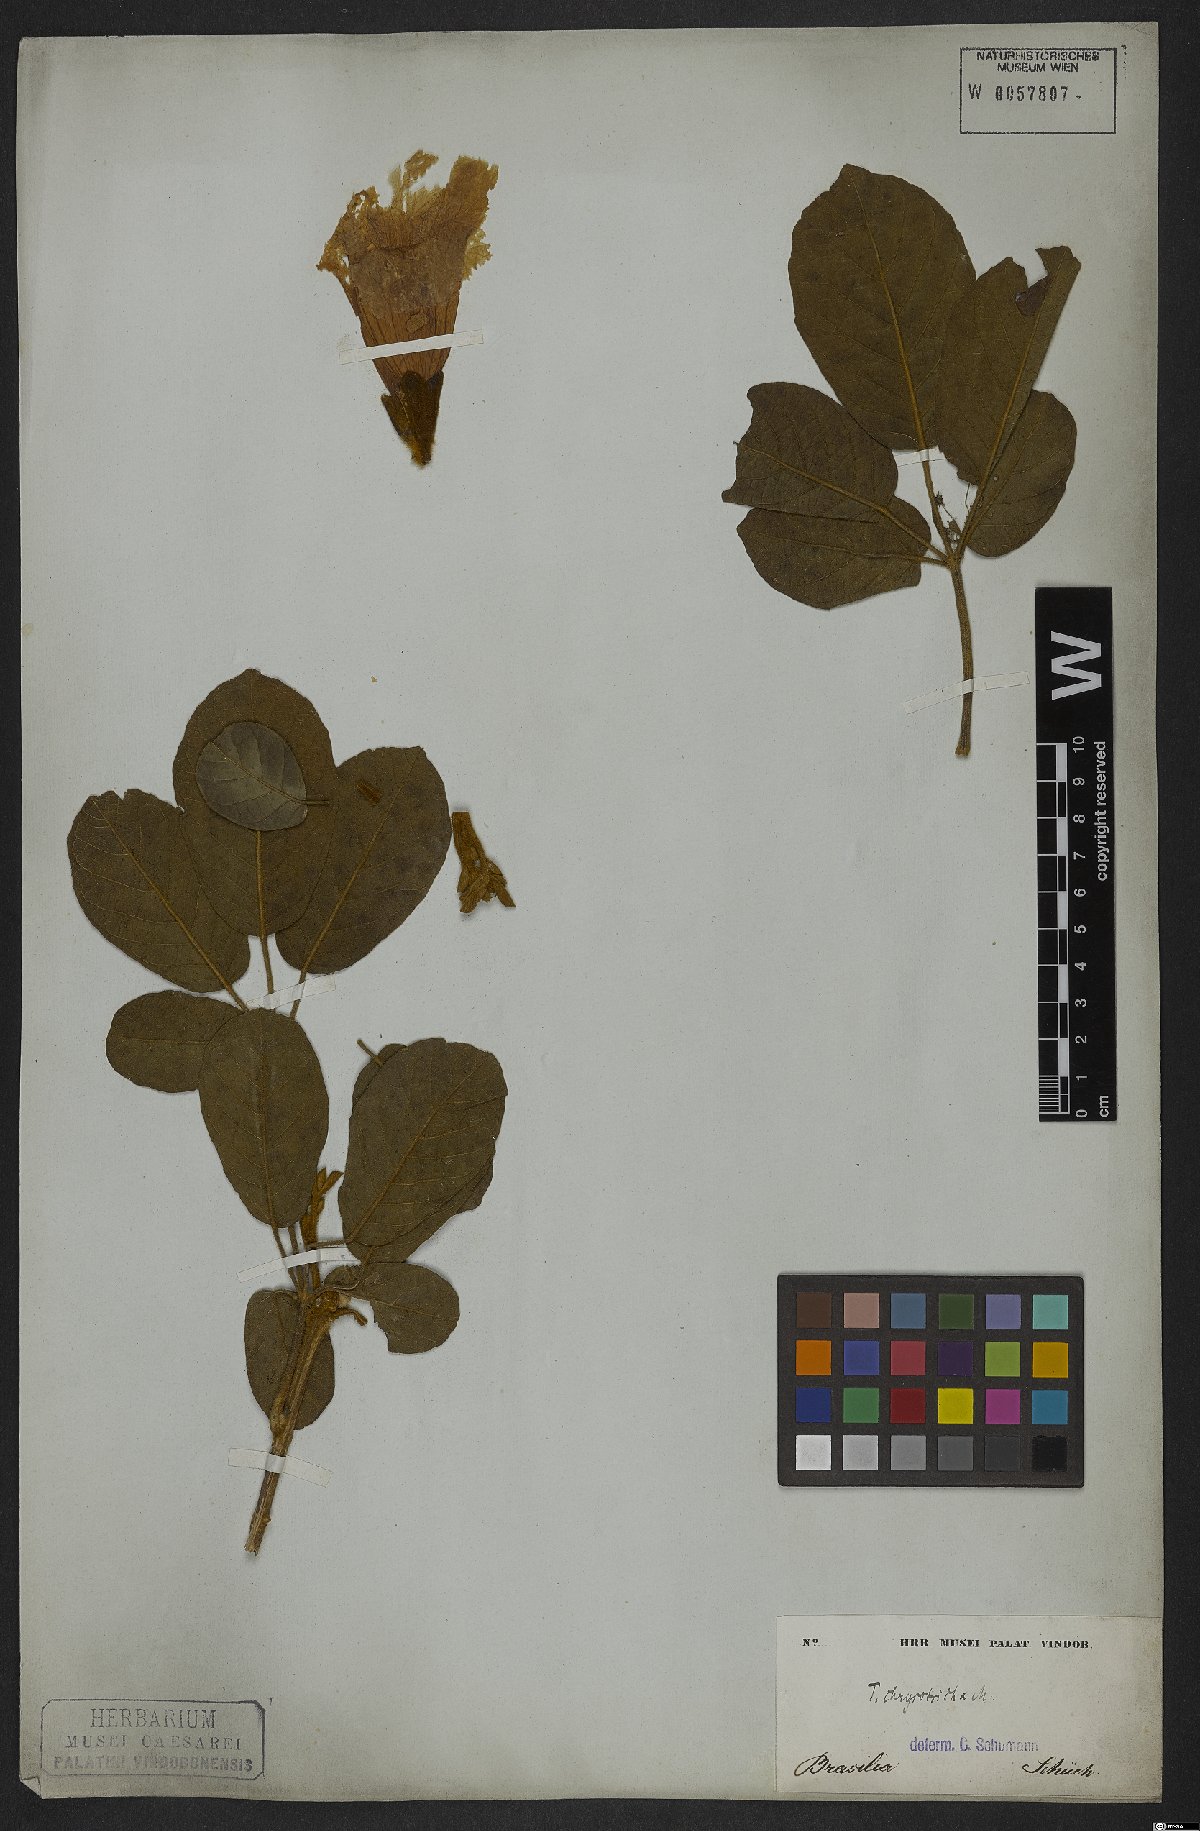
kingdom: Plantae
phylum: Tracheophyta
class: Magnoliopsida
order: Lamiales
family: Bignoniaceae
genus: Handroanthus
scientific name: Handroanthus chrysotrichus
